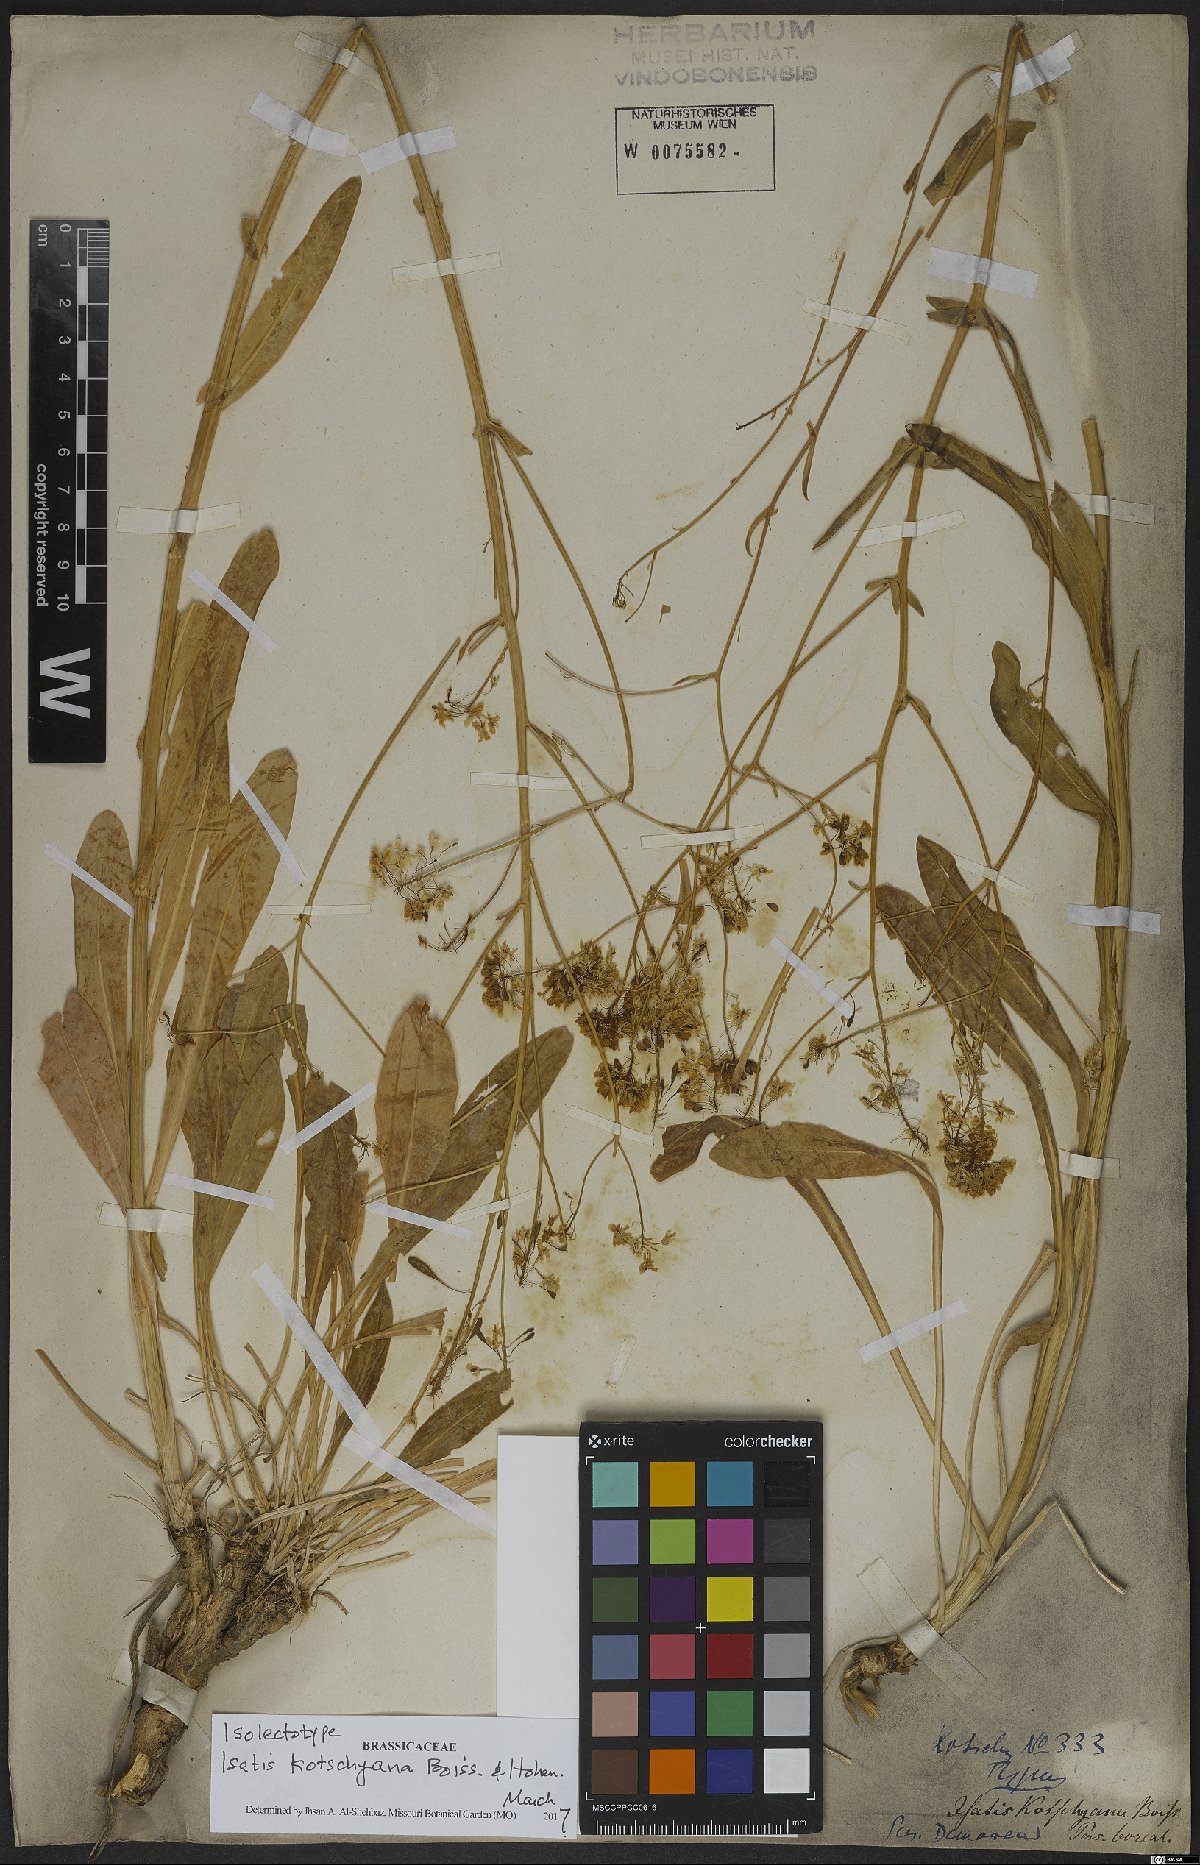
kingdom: Plantae
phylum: Tracheophyta
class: Magnoliopsida
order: Brassicales
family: Brassicaceae
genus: Isatis
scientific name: Isatis kotschyana
